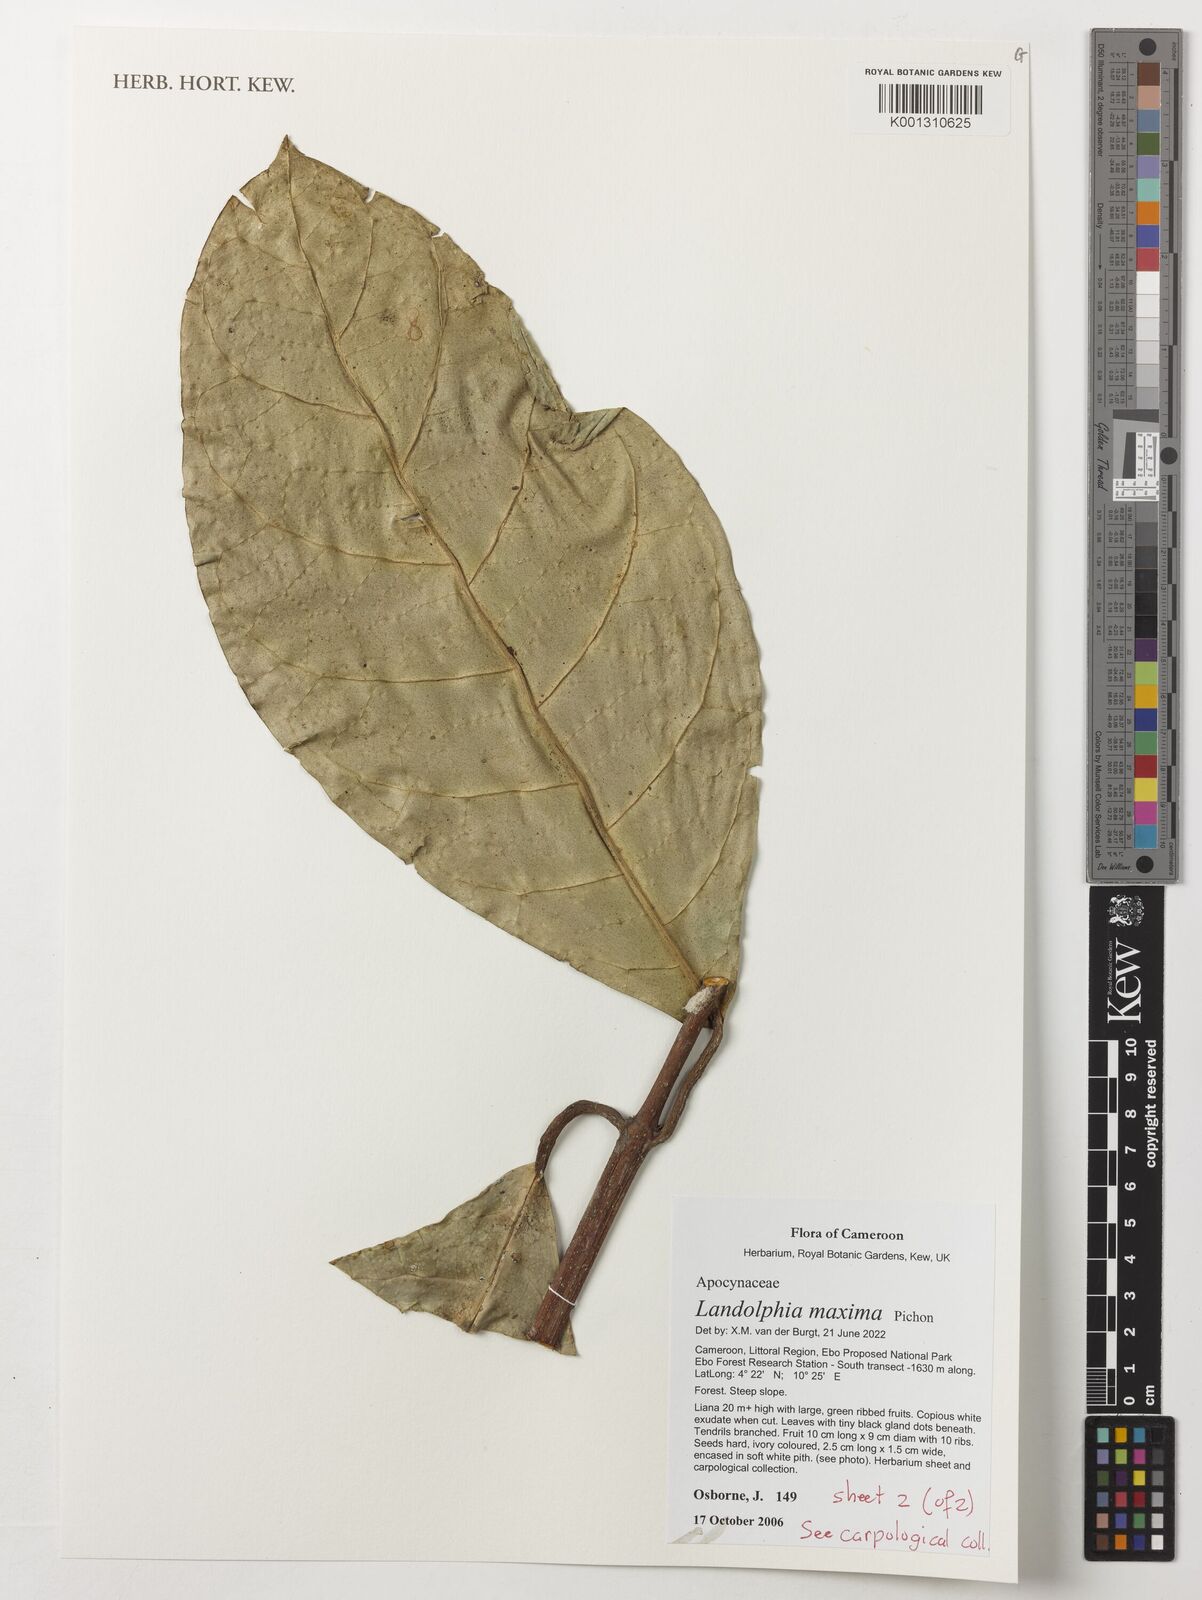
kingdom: Plantae
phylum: Tracheophyta
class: Magnoliopsida
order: Gentianales
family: Apocynaceae
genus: Landolphia
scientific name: Landolphia maxima
